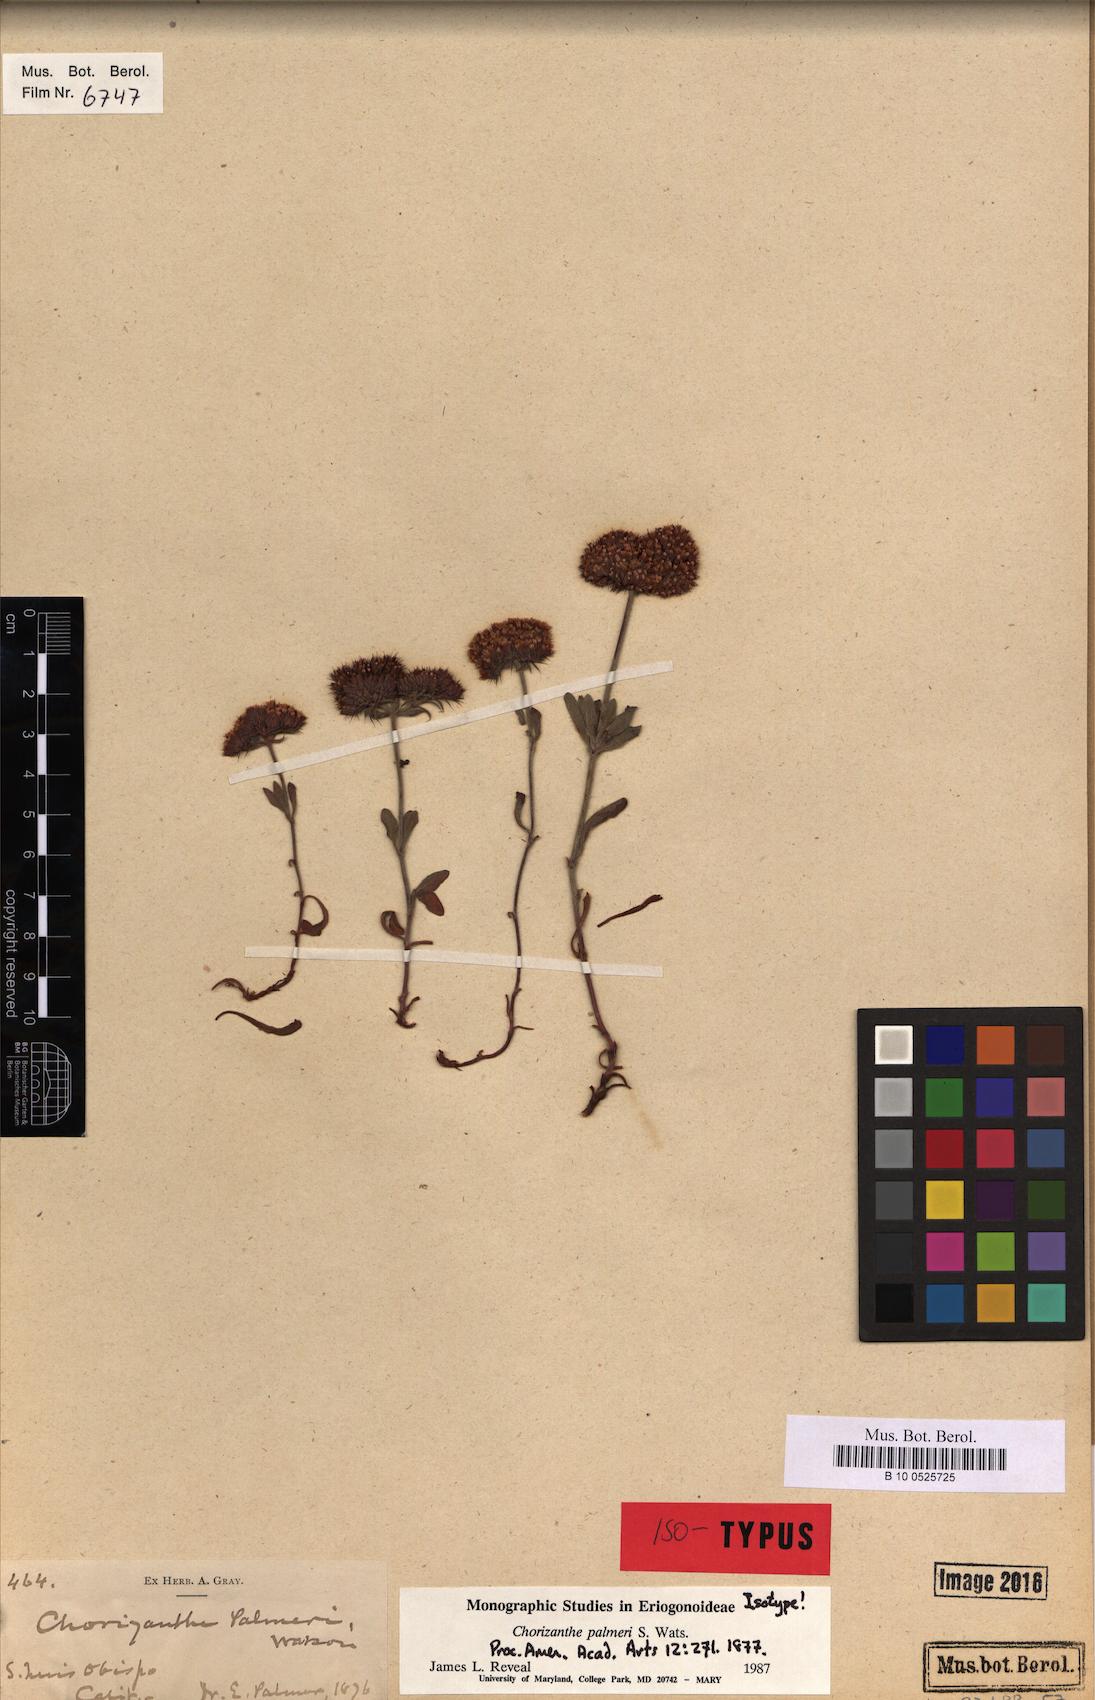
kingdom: Plantae
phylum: Tracheophyta
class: Magnoliopsida
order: Caryophyllales
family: Polygonaceae
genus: Chorizanthe
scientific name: Chorizanthe palmeri
